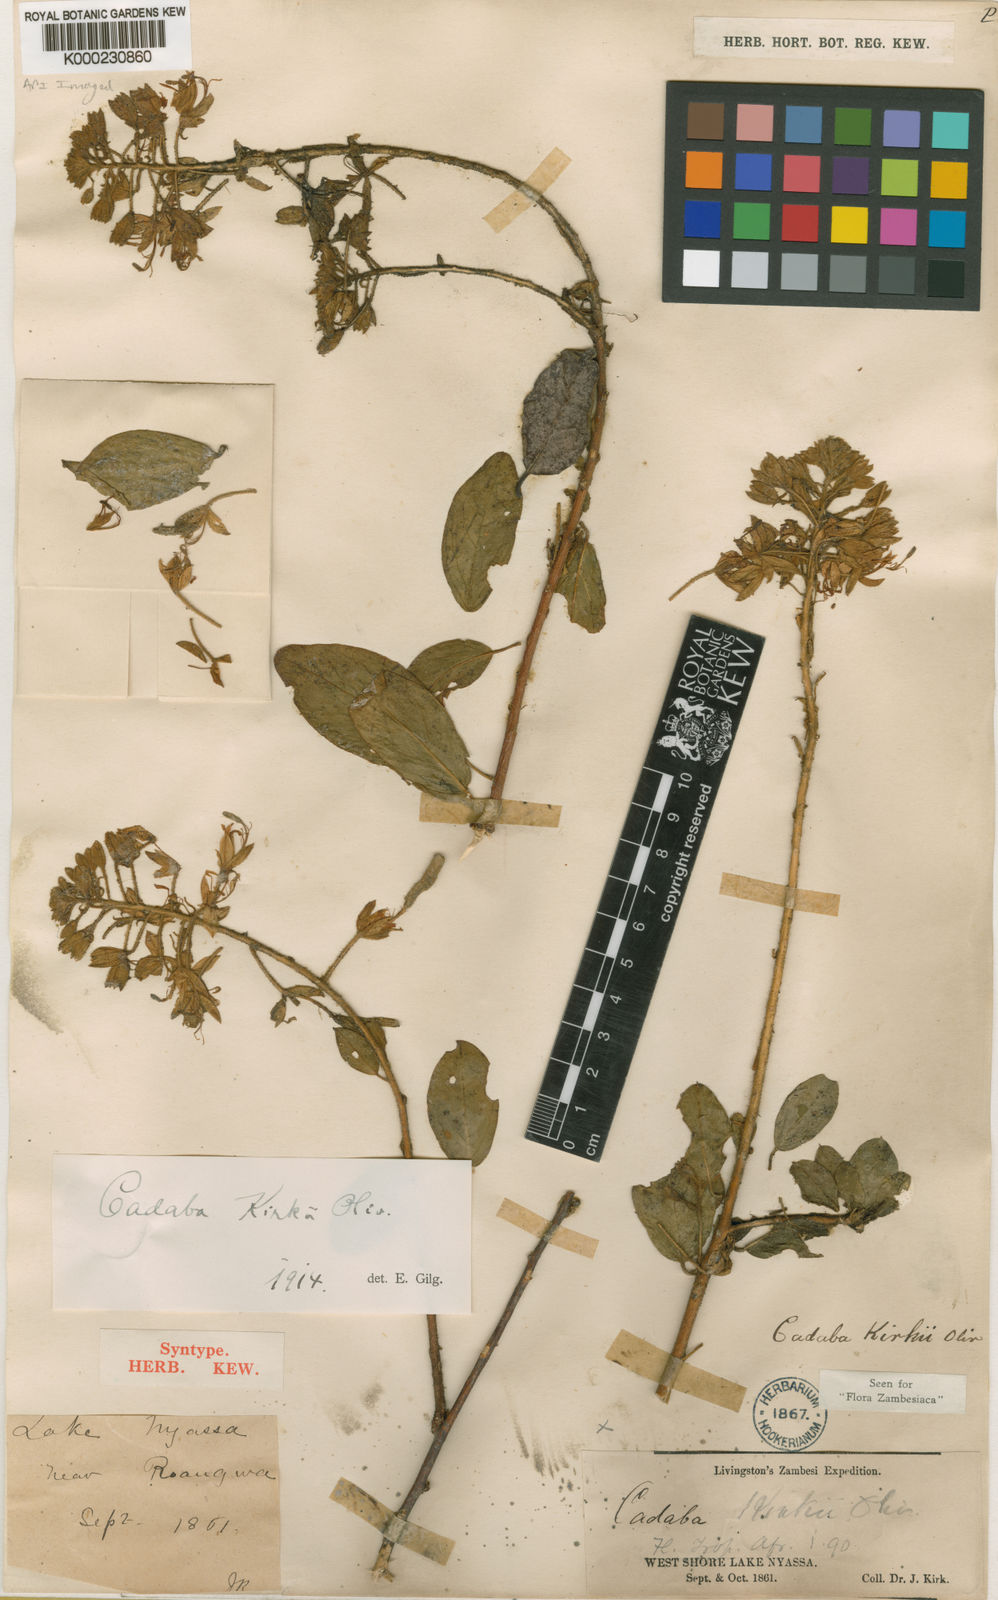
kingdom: Plantae
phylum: Tracheophyta
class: Magnoliopsida
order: Brassicales
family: Capparaceae
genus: Cadaba
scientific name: Cadaba kirkii
